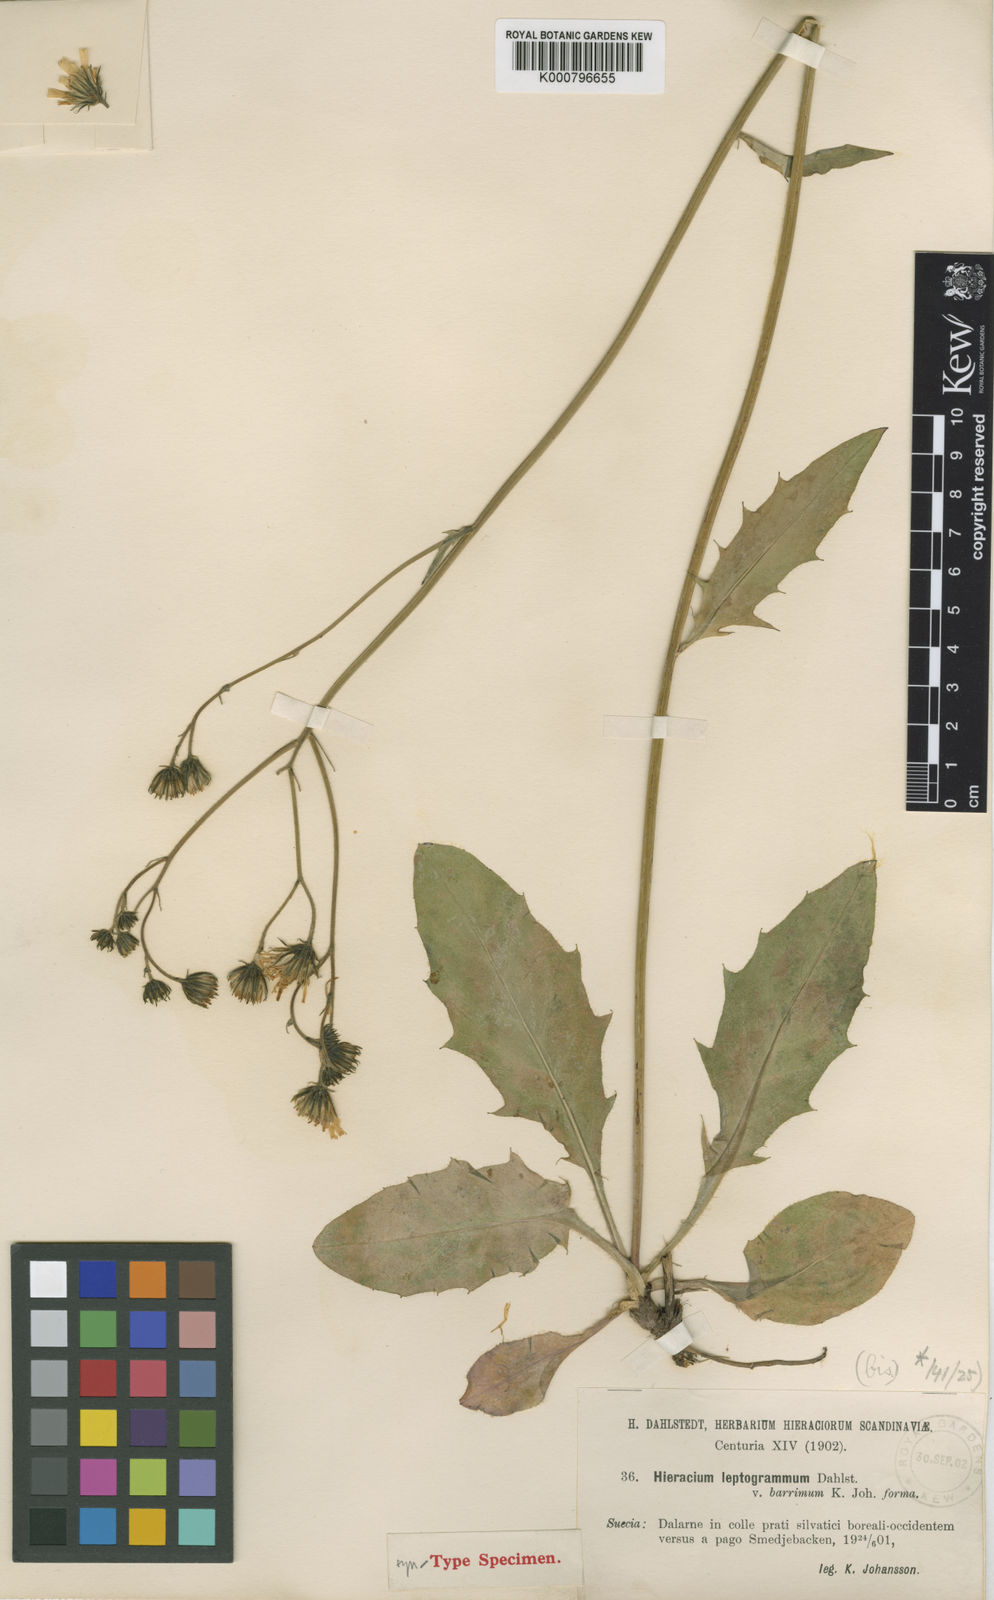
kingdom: Plantae
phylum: Tracheophyta
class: Magnoliopsida
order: Asterales
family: Asteraceae
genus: Hieracium
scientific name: Hieracium diaphanoides
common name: Fine-bracted hawkweed
